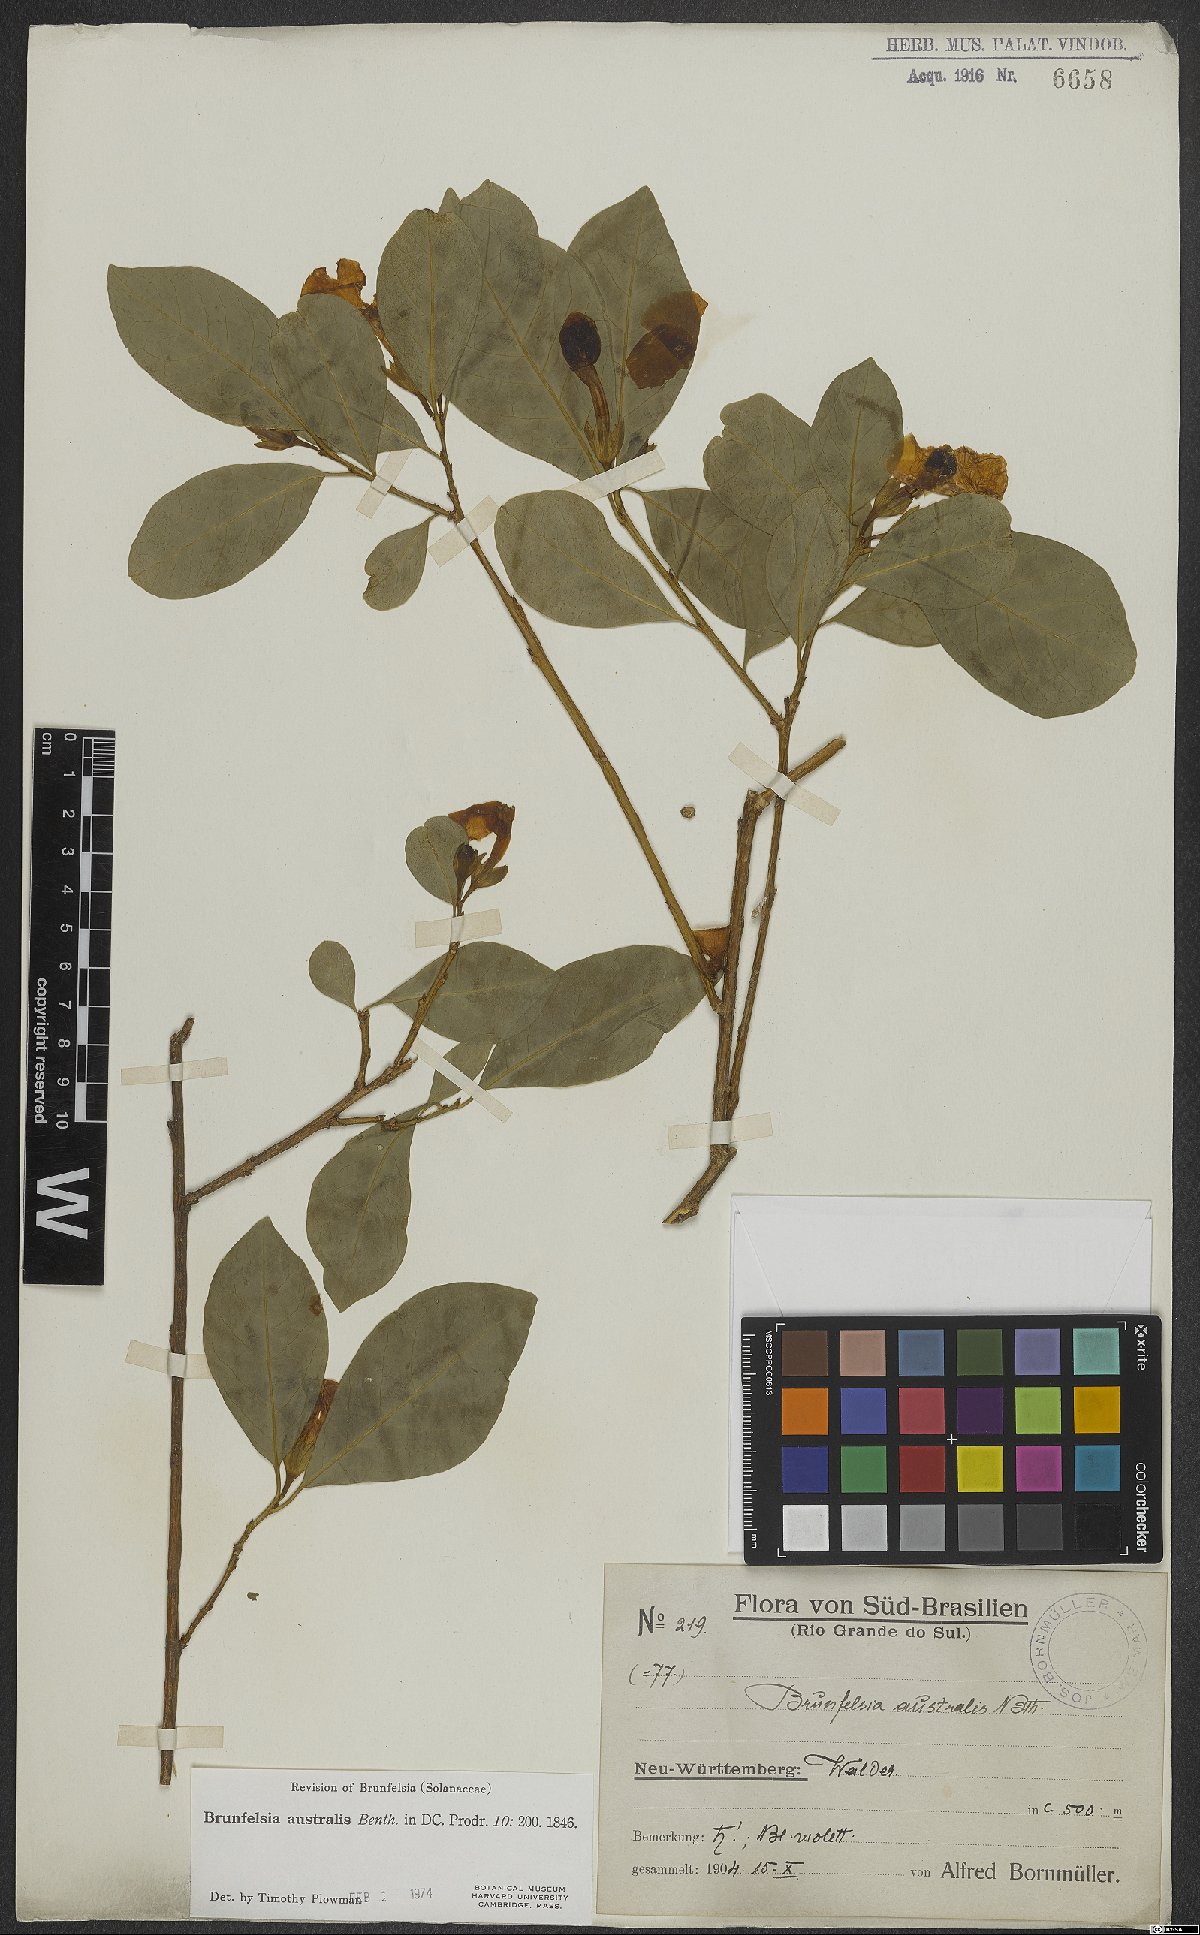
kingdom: Plantae
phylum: Tracheophyta
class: Magnoliopsida
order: Solanales
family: Solanaceae
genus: Brunfelsia
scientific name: Brunfelsia australis
